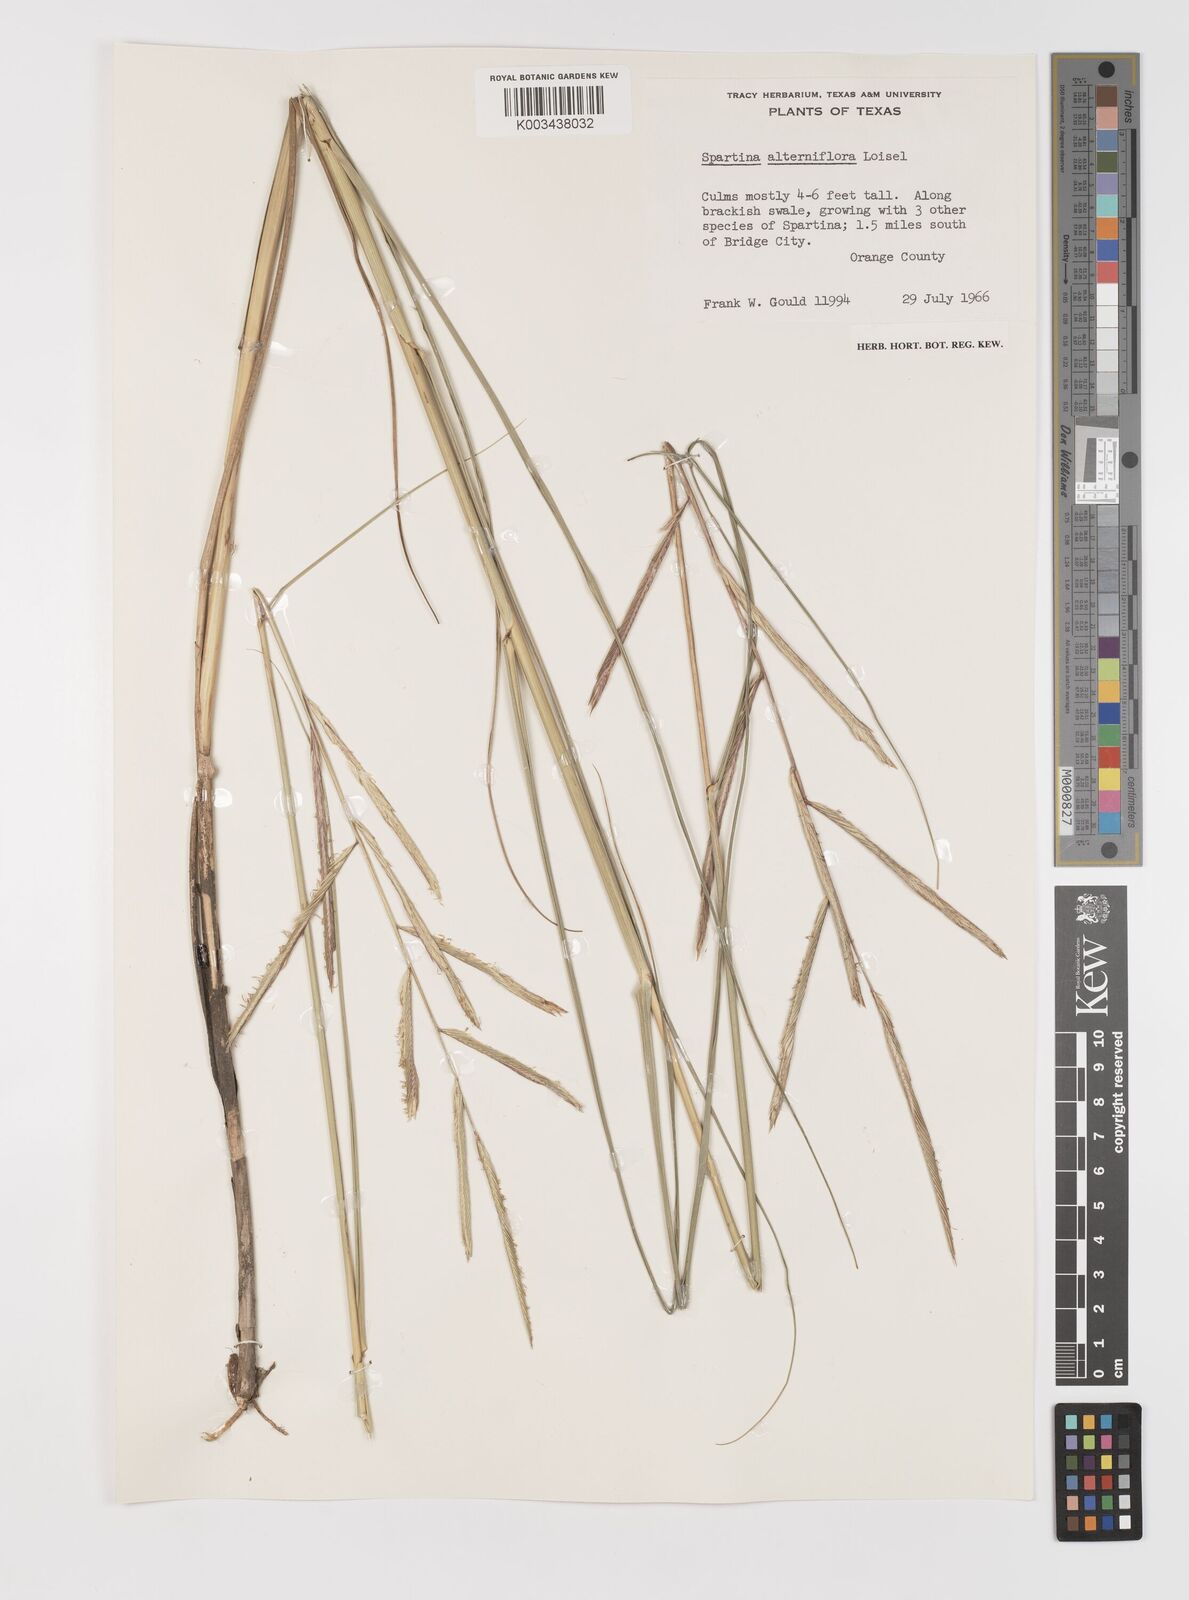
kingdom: Plantae
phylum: Tracheophyta
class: Liliopsida
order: Poales
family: Poaceae
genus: Sporobolus
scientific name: Sporobolus alterniflorus
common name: Atlantic cordgrass
